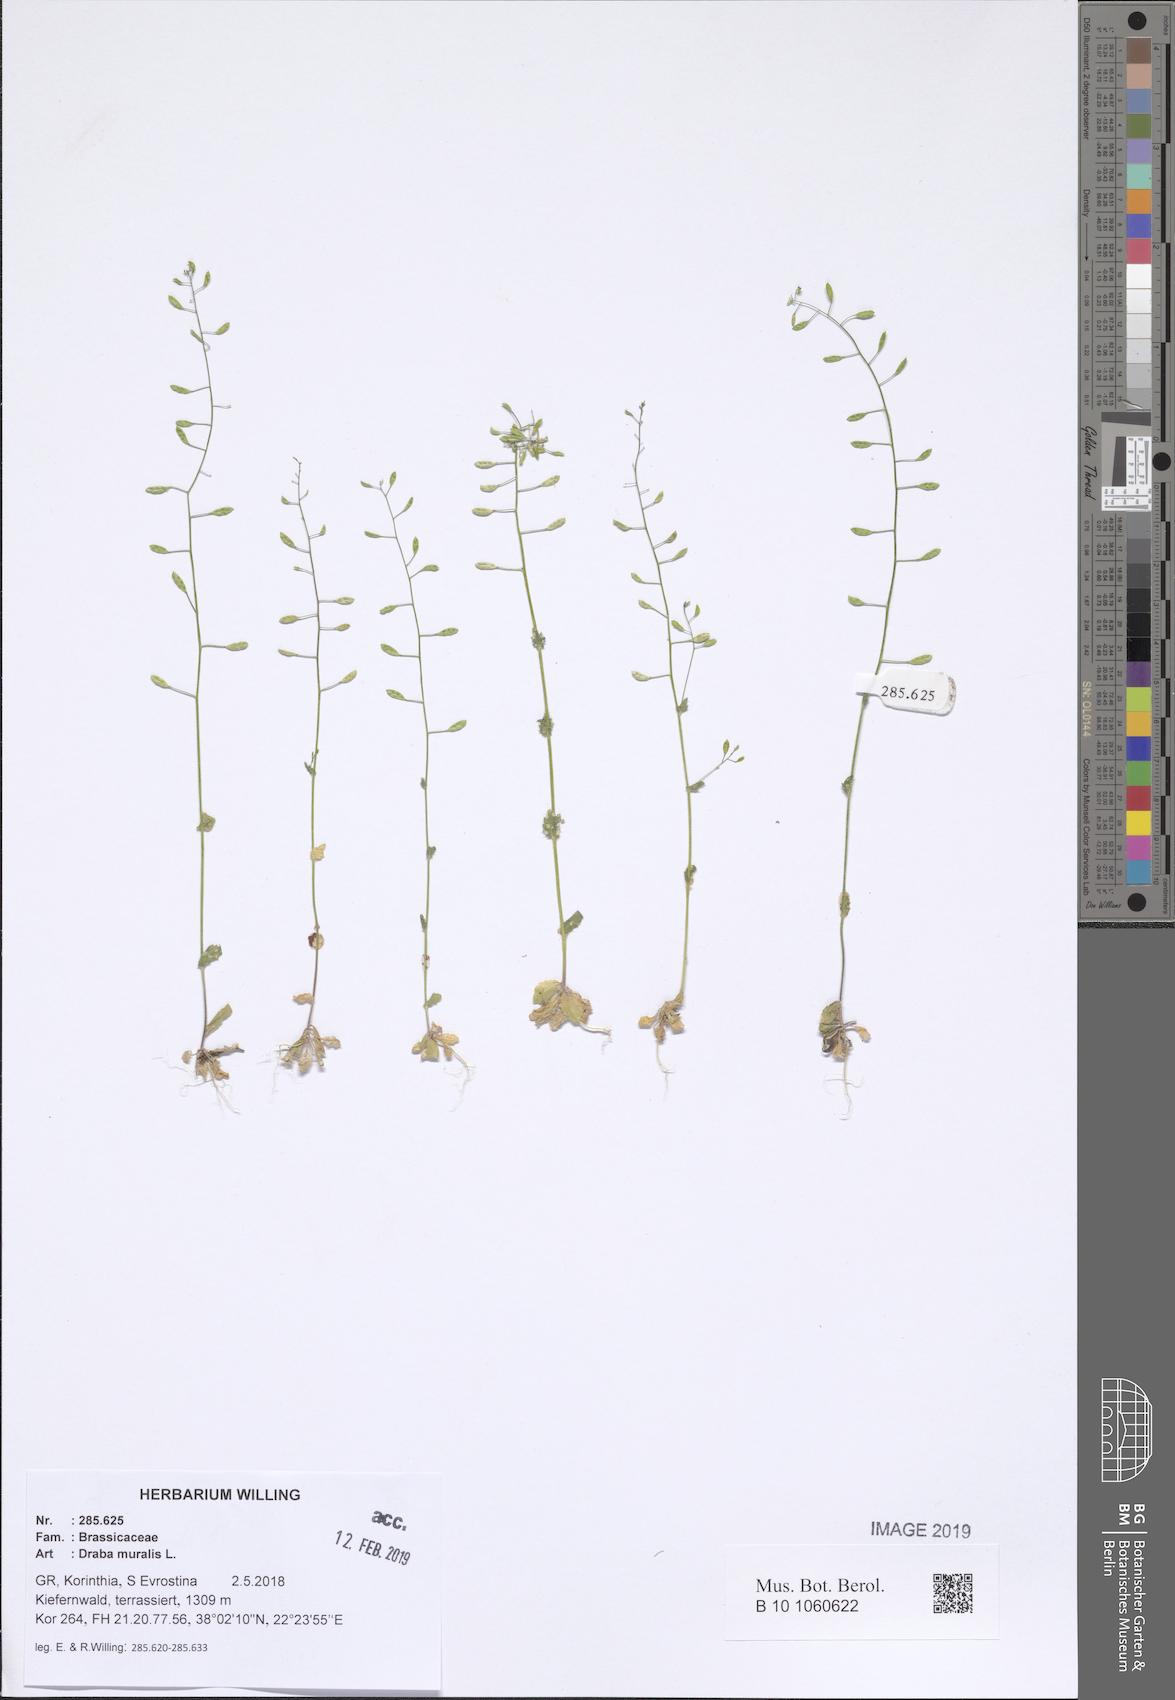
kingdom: Plantae
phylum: Tracheophyta
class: Magnoliopsida
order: Brassicales
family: Brassicaceae
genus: Drabella
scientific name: Drabella muralis
